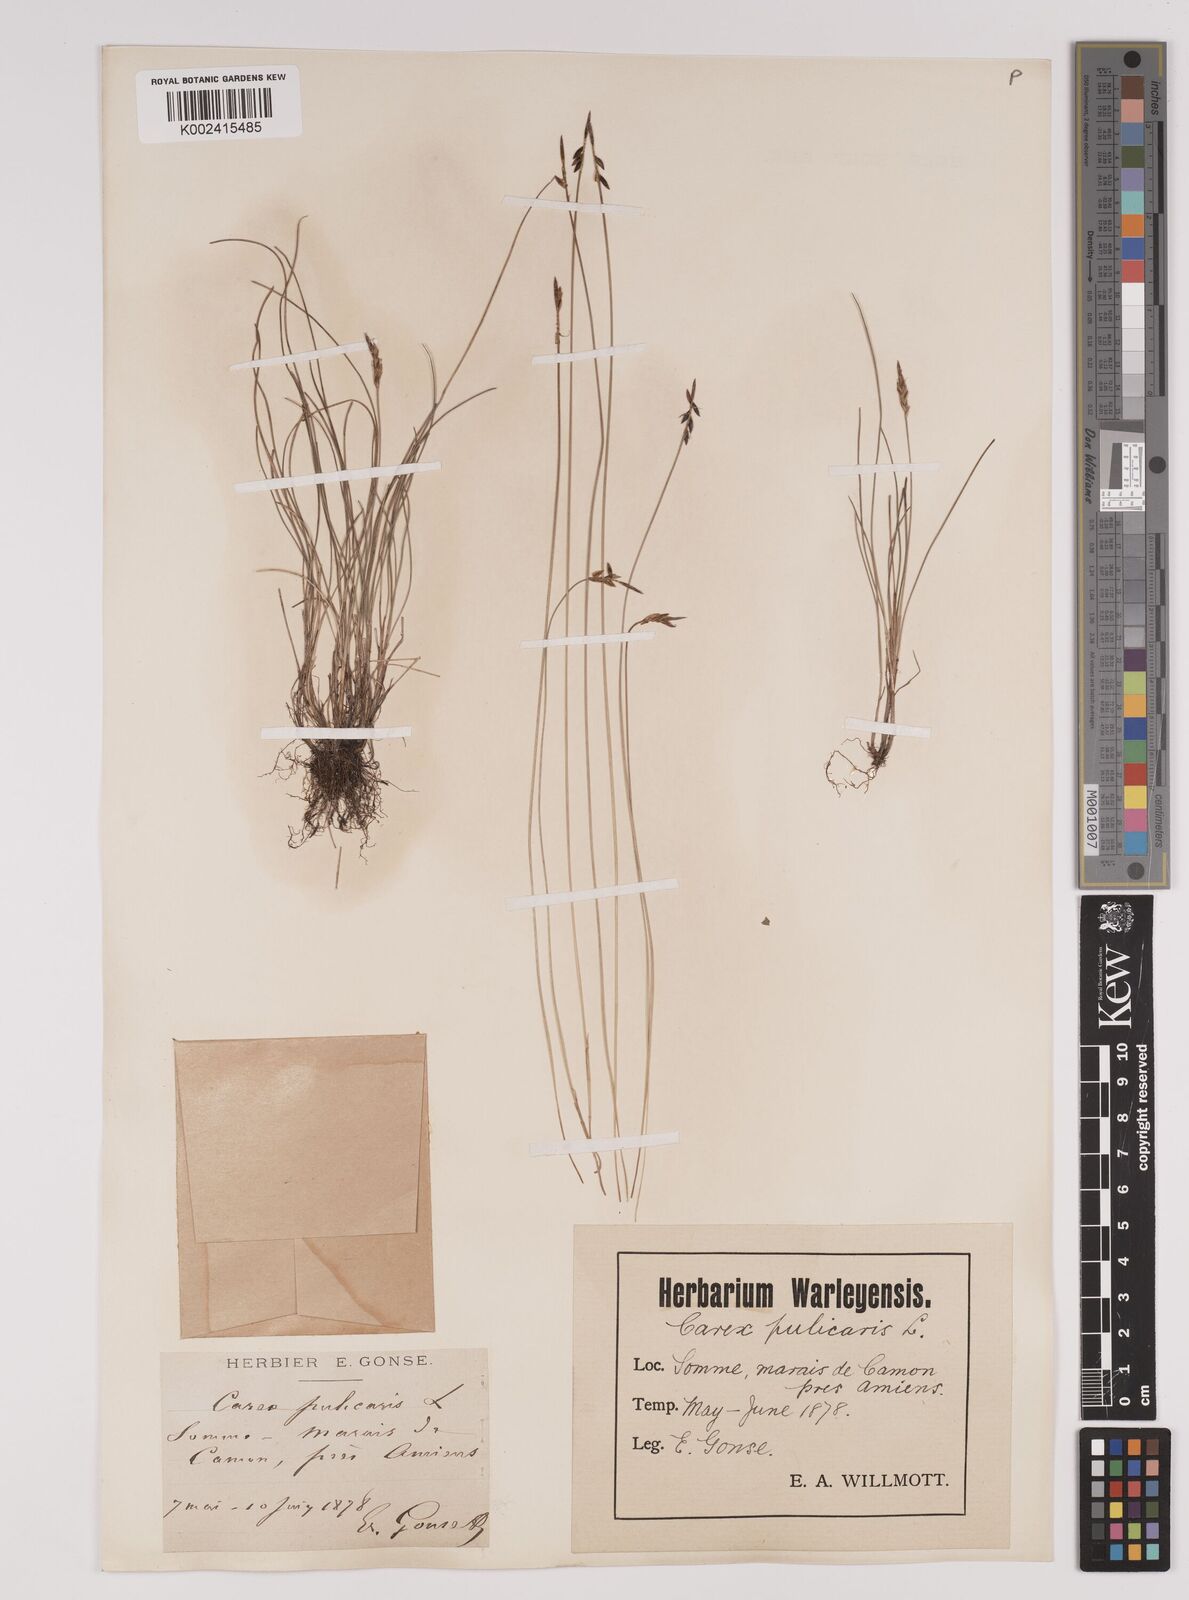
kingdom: Plantae
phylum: Tracheophyta
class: Liliopsida
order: Poales
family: Cyperaceae
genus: Carex
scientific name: Carex pulicaris
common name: Flea sedge
